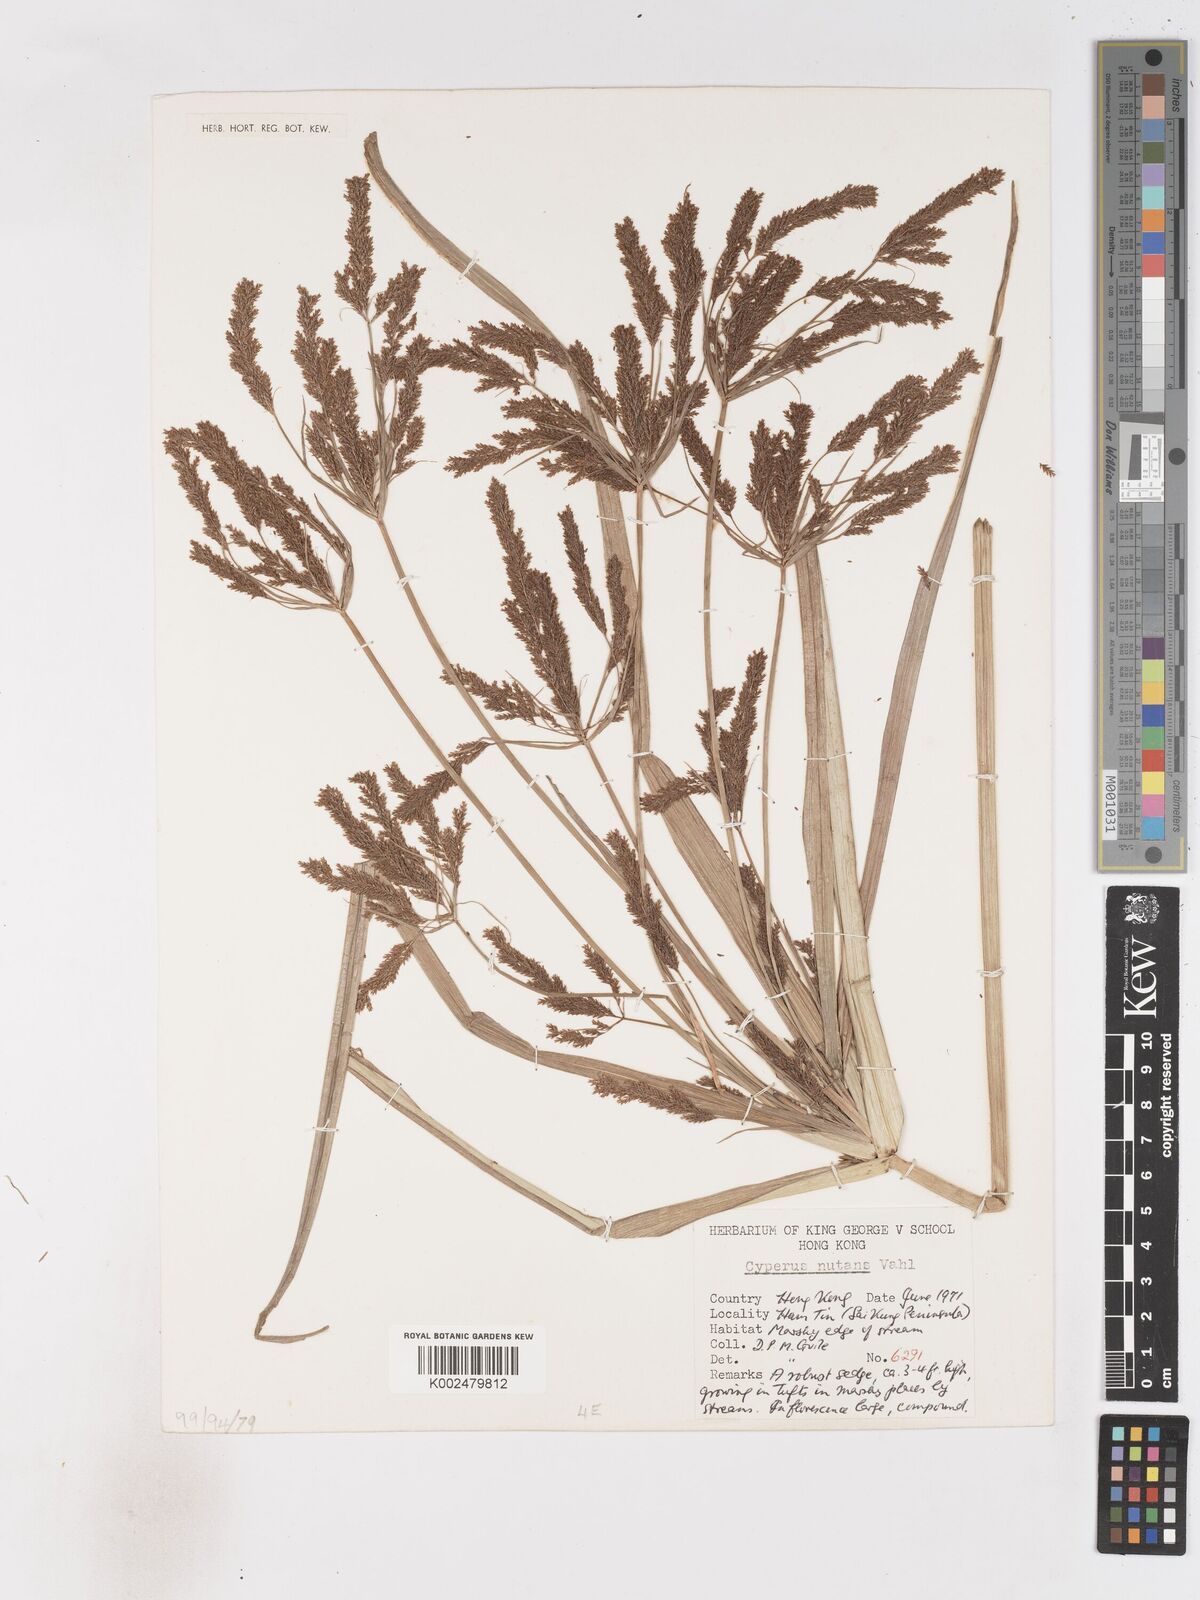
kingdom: Plantae
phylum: Tracheophyta
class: Liliopsida
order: Poales
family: Cyperaceae
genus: Cyperus
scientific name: Cyperus nutans
